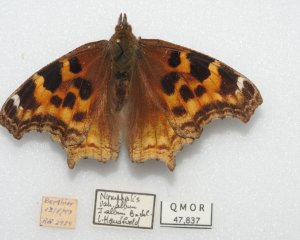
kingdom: Animalia
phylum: Arthropoda
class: Insecta
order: Lepidoptera
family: Nymphalidae
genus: Polygonia
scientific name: Polygonia vaualbum
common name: Compton Tortoiseshell
